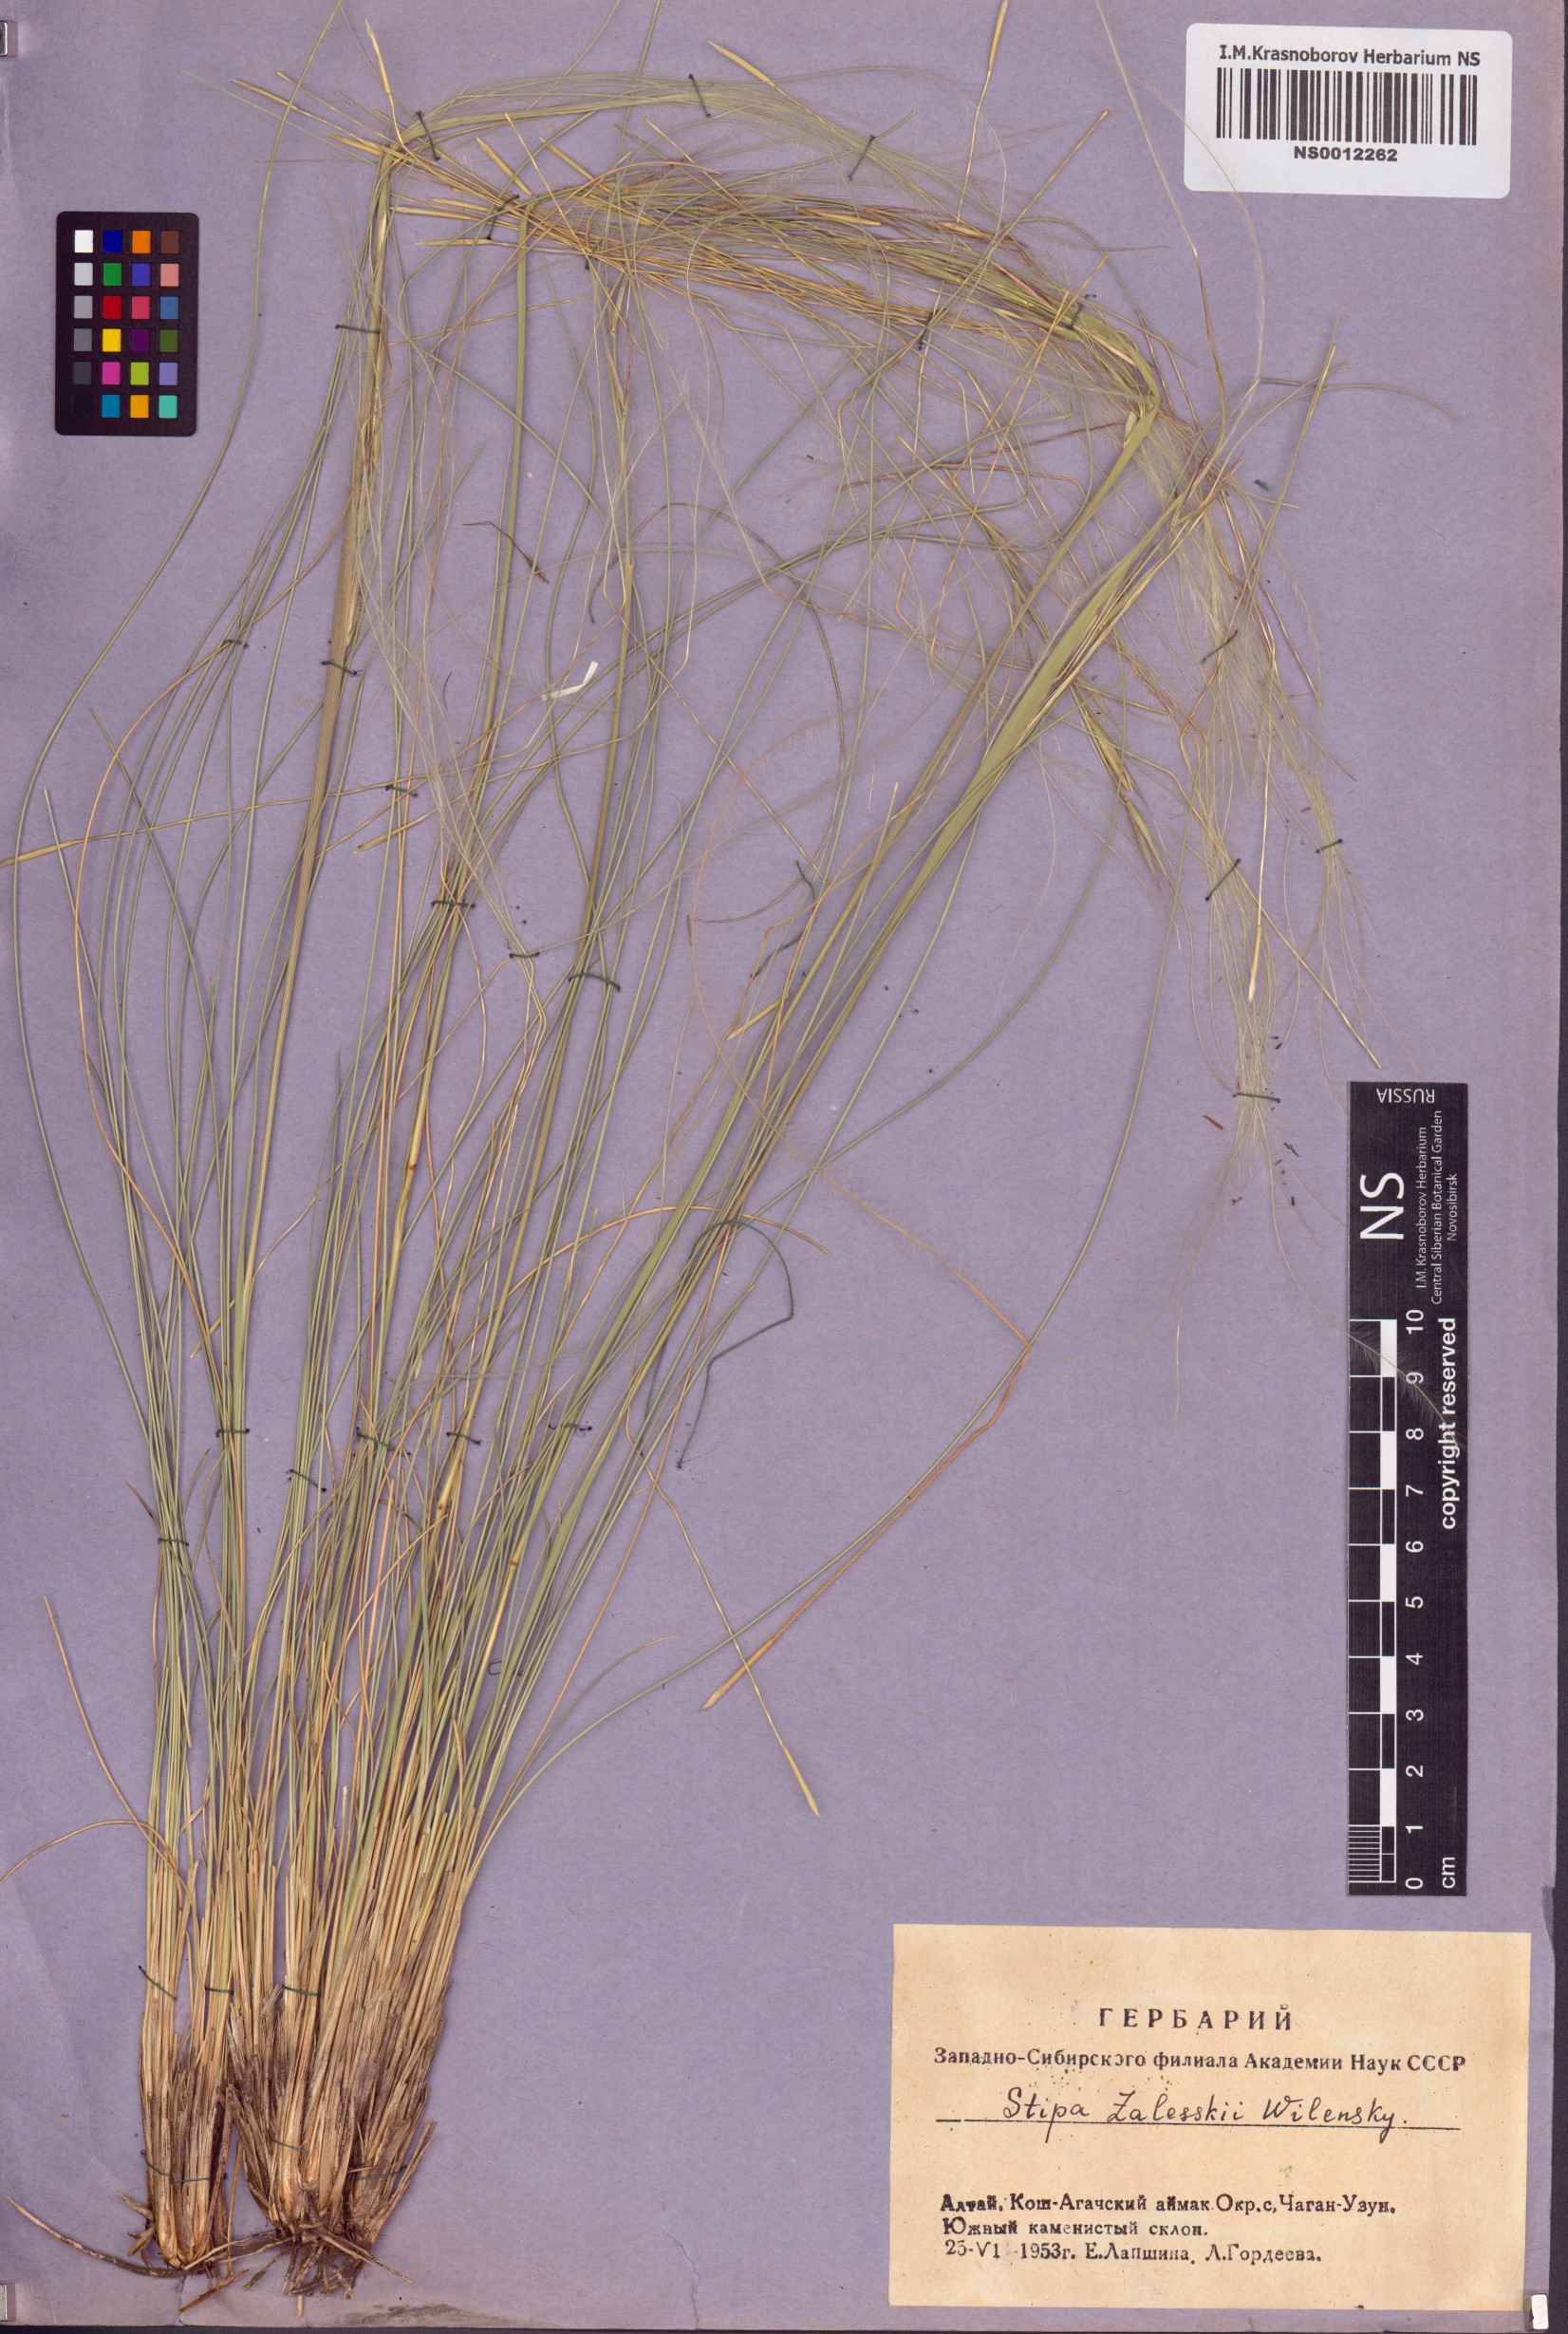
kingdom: Plantae
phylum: Tracheophyta
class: Liliopsida
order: Poales
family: Poaceae
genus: Stipa
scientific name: Stipa zalesskii
